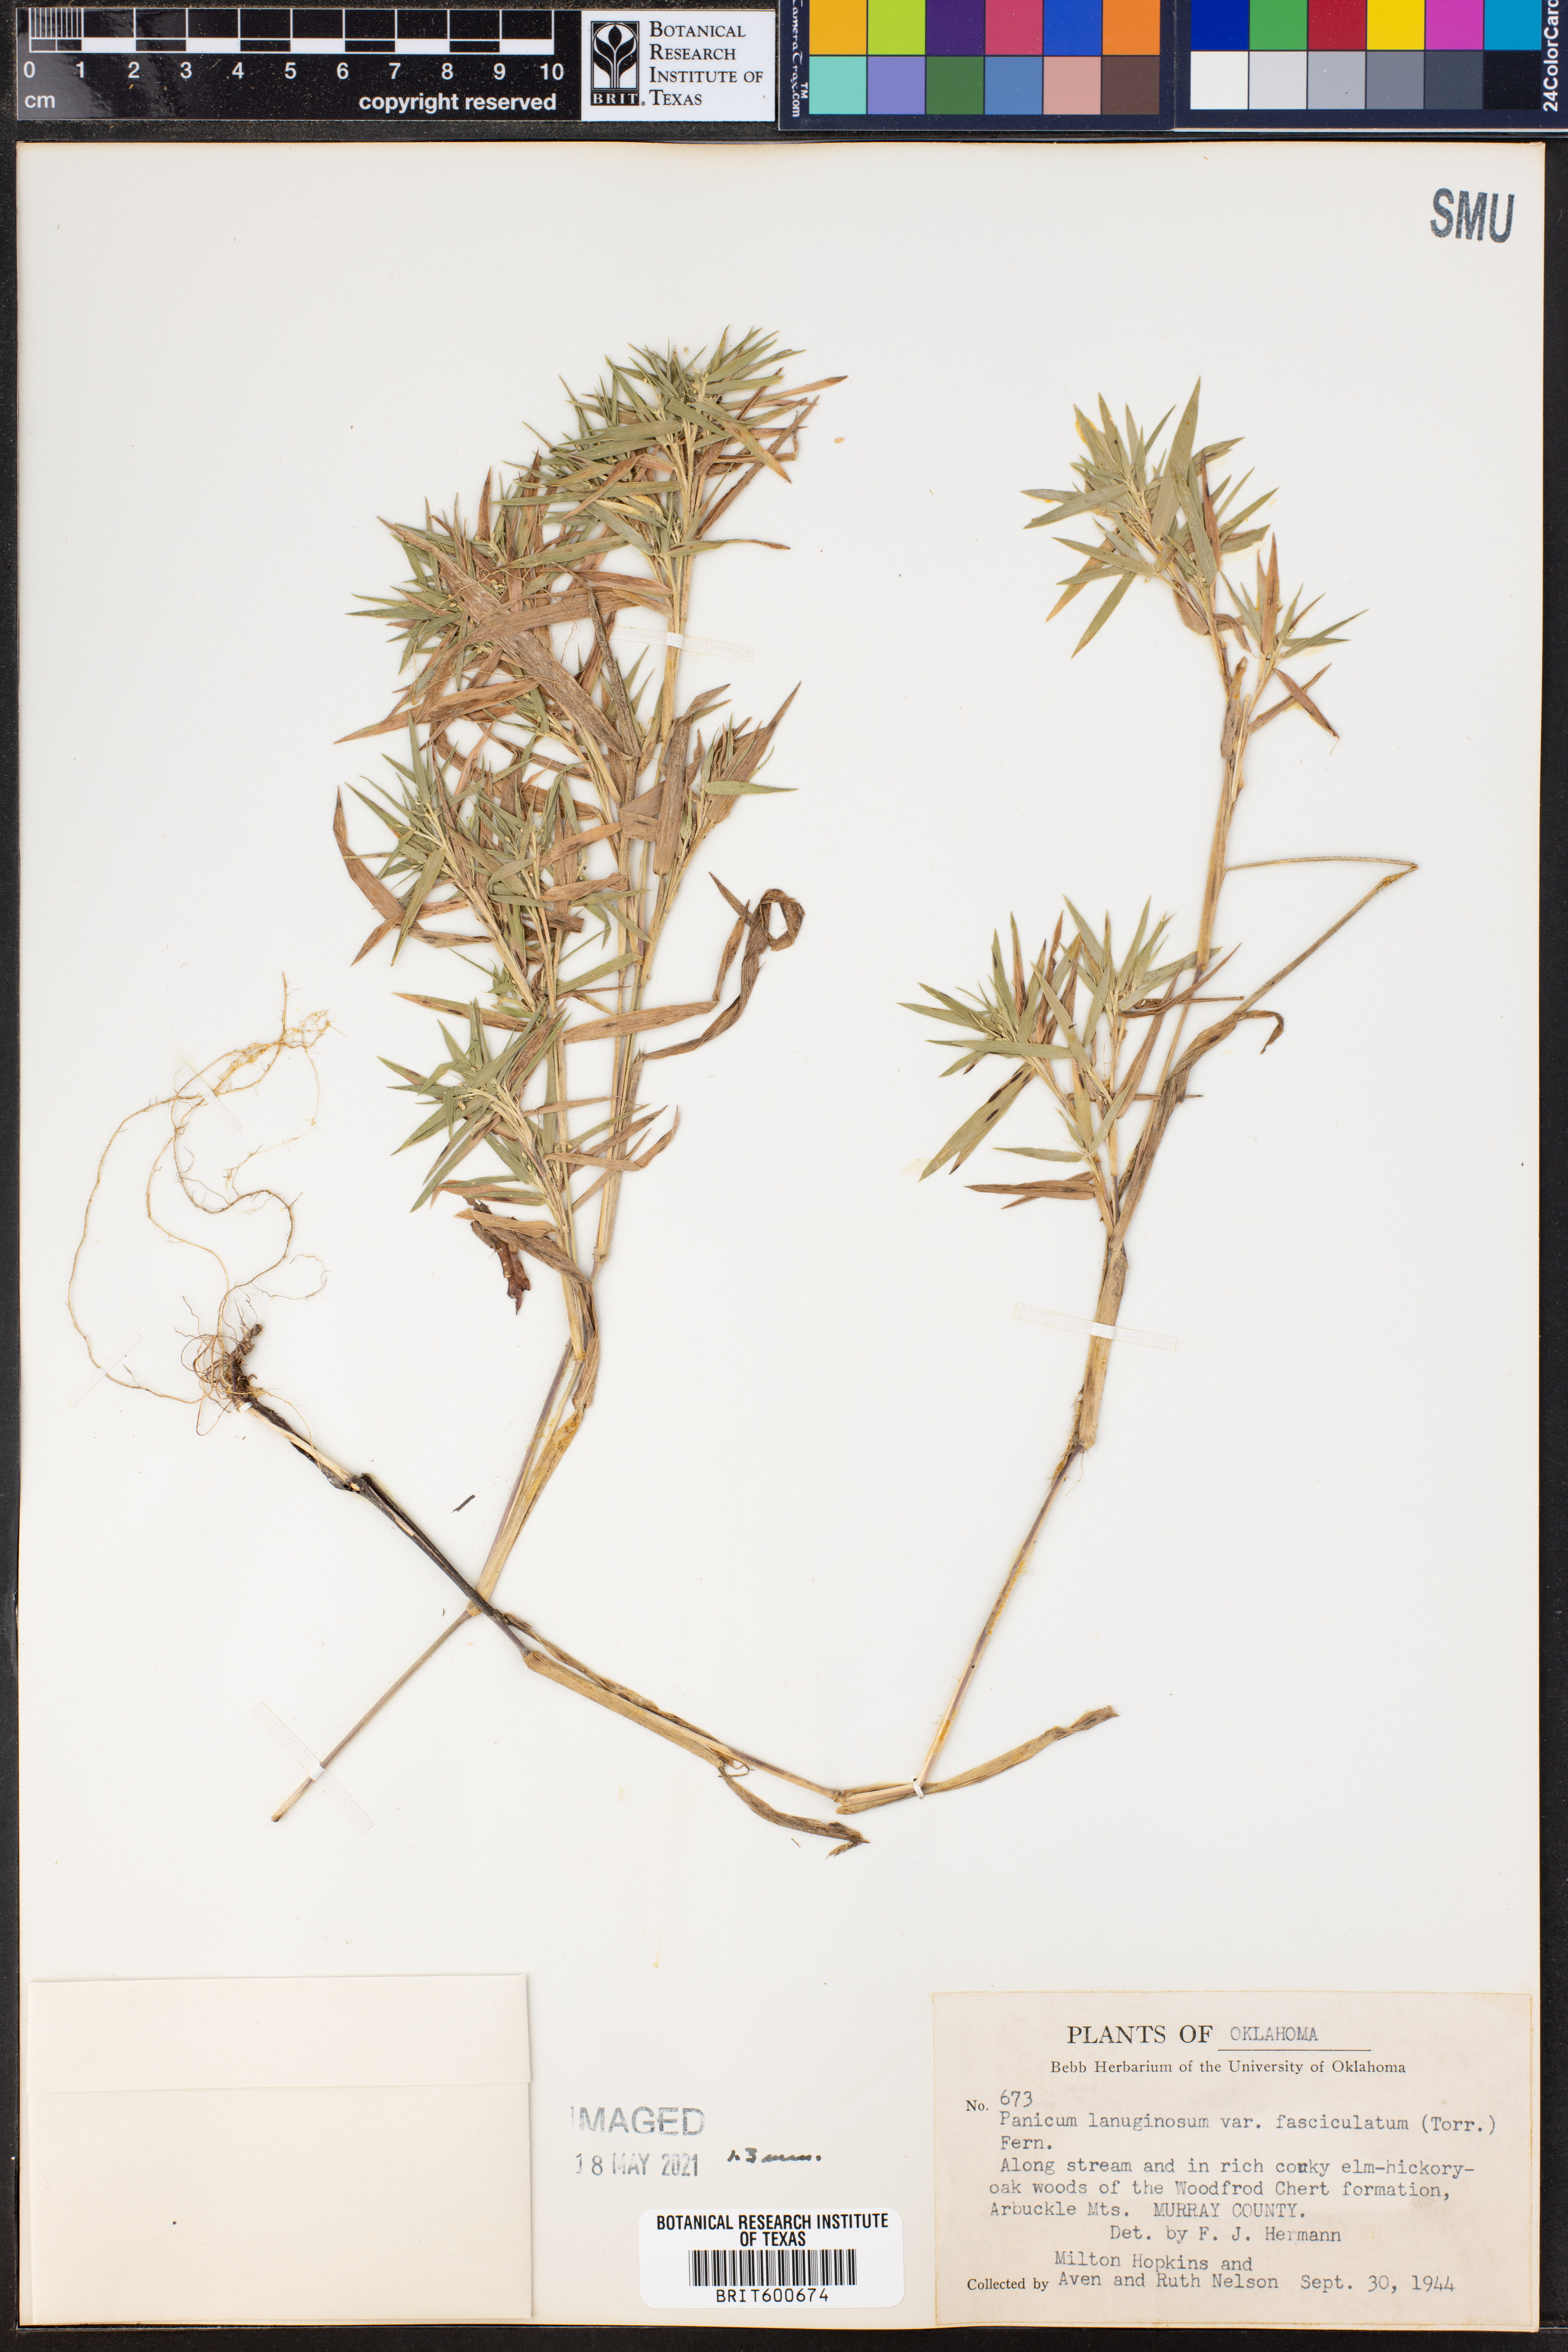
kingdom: Plantae
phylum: Tracheophyta
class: Liliopsida
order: Poales
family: Poaceae
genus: Dichanthelium
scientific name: Dichanthelium lanuginosum
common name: Woolly panicgrass
